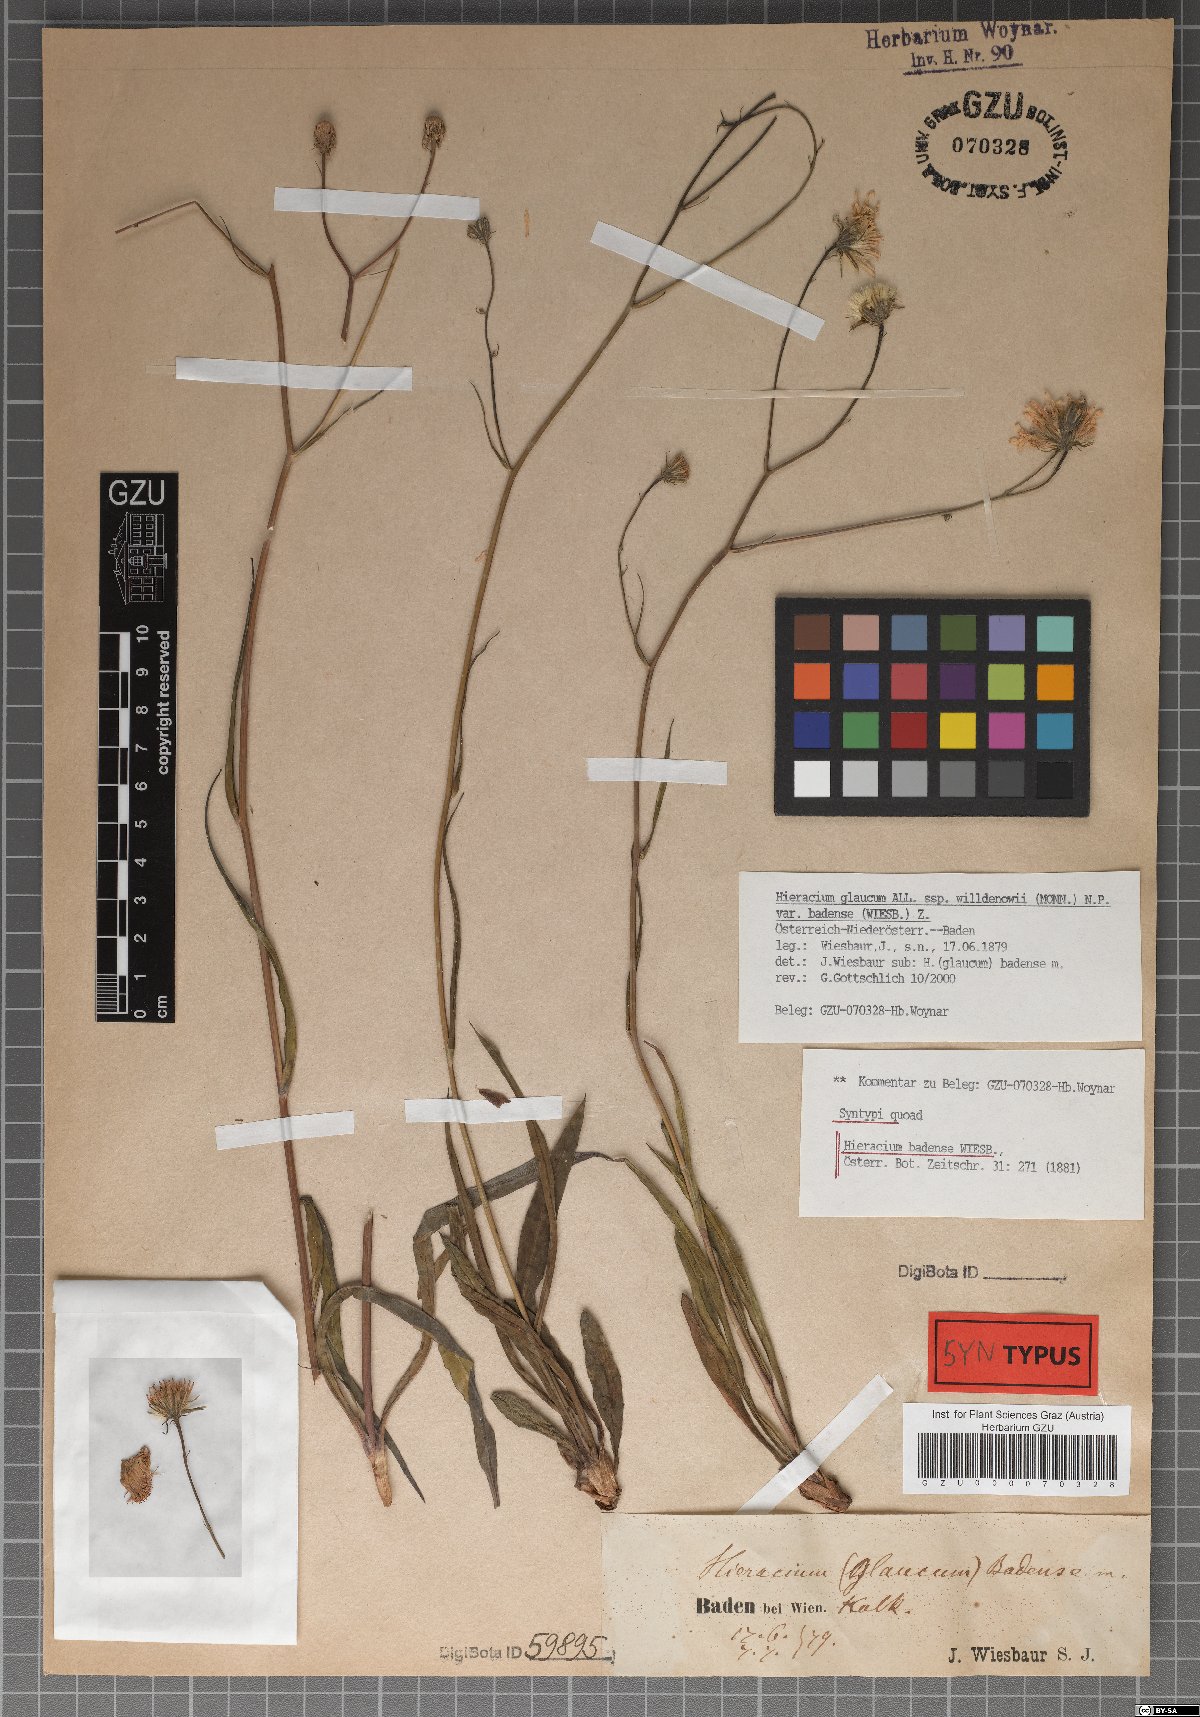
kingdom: Plantae
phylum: Tracheophyta
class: Magnoliopsida
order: Asterales
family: Asteraceae
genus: Hieracium
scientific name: Hieracium badense
